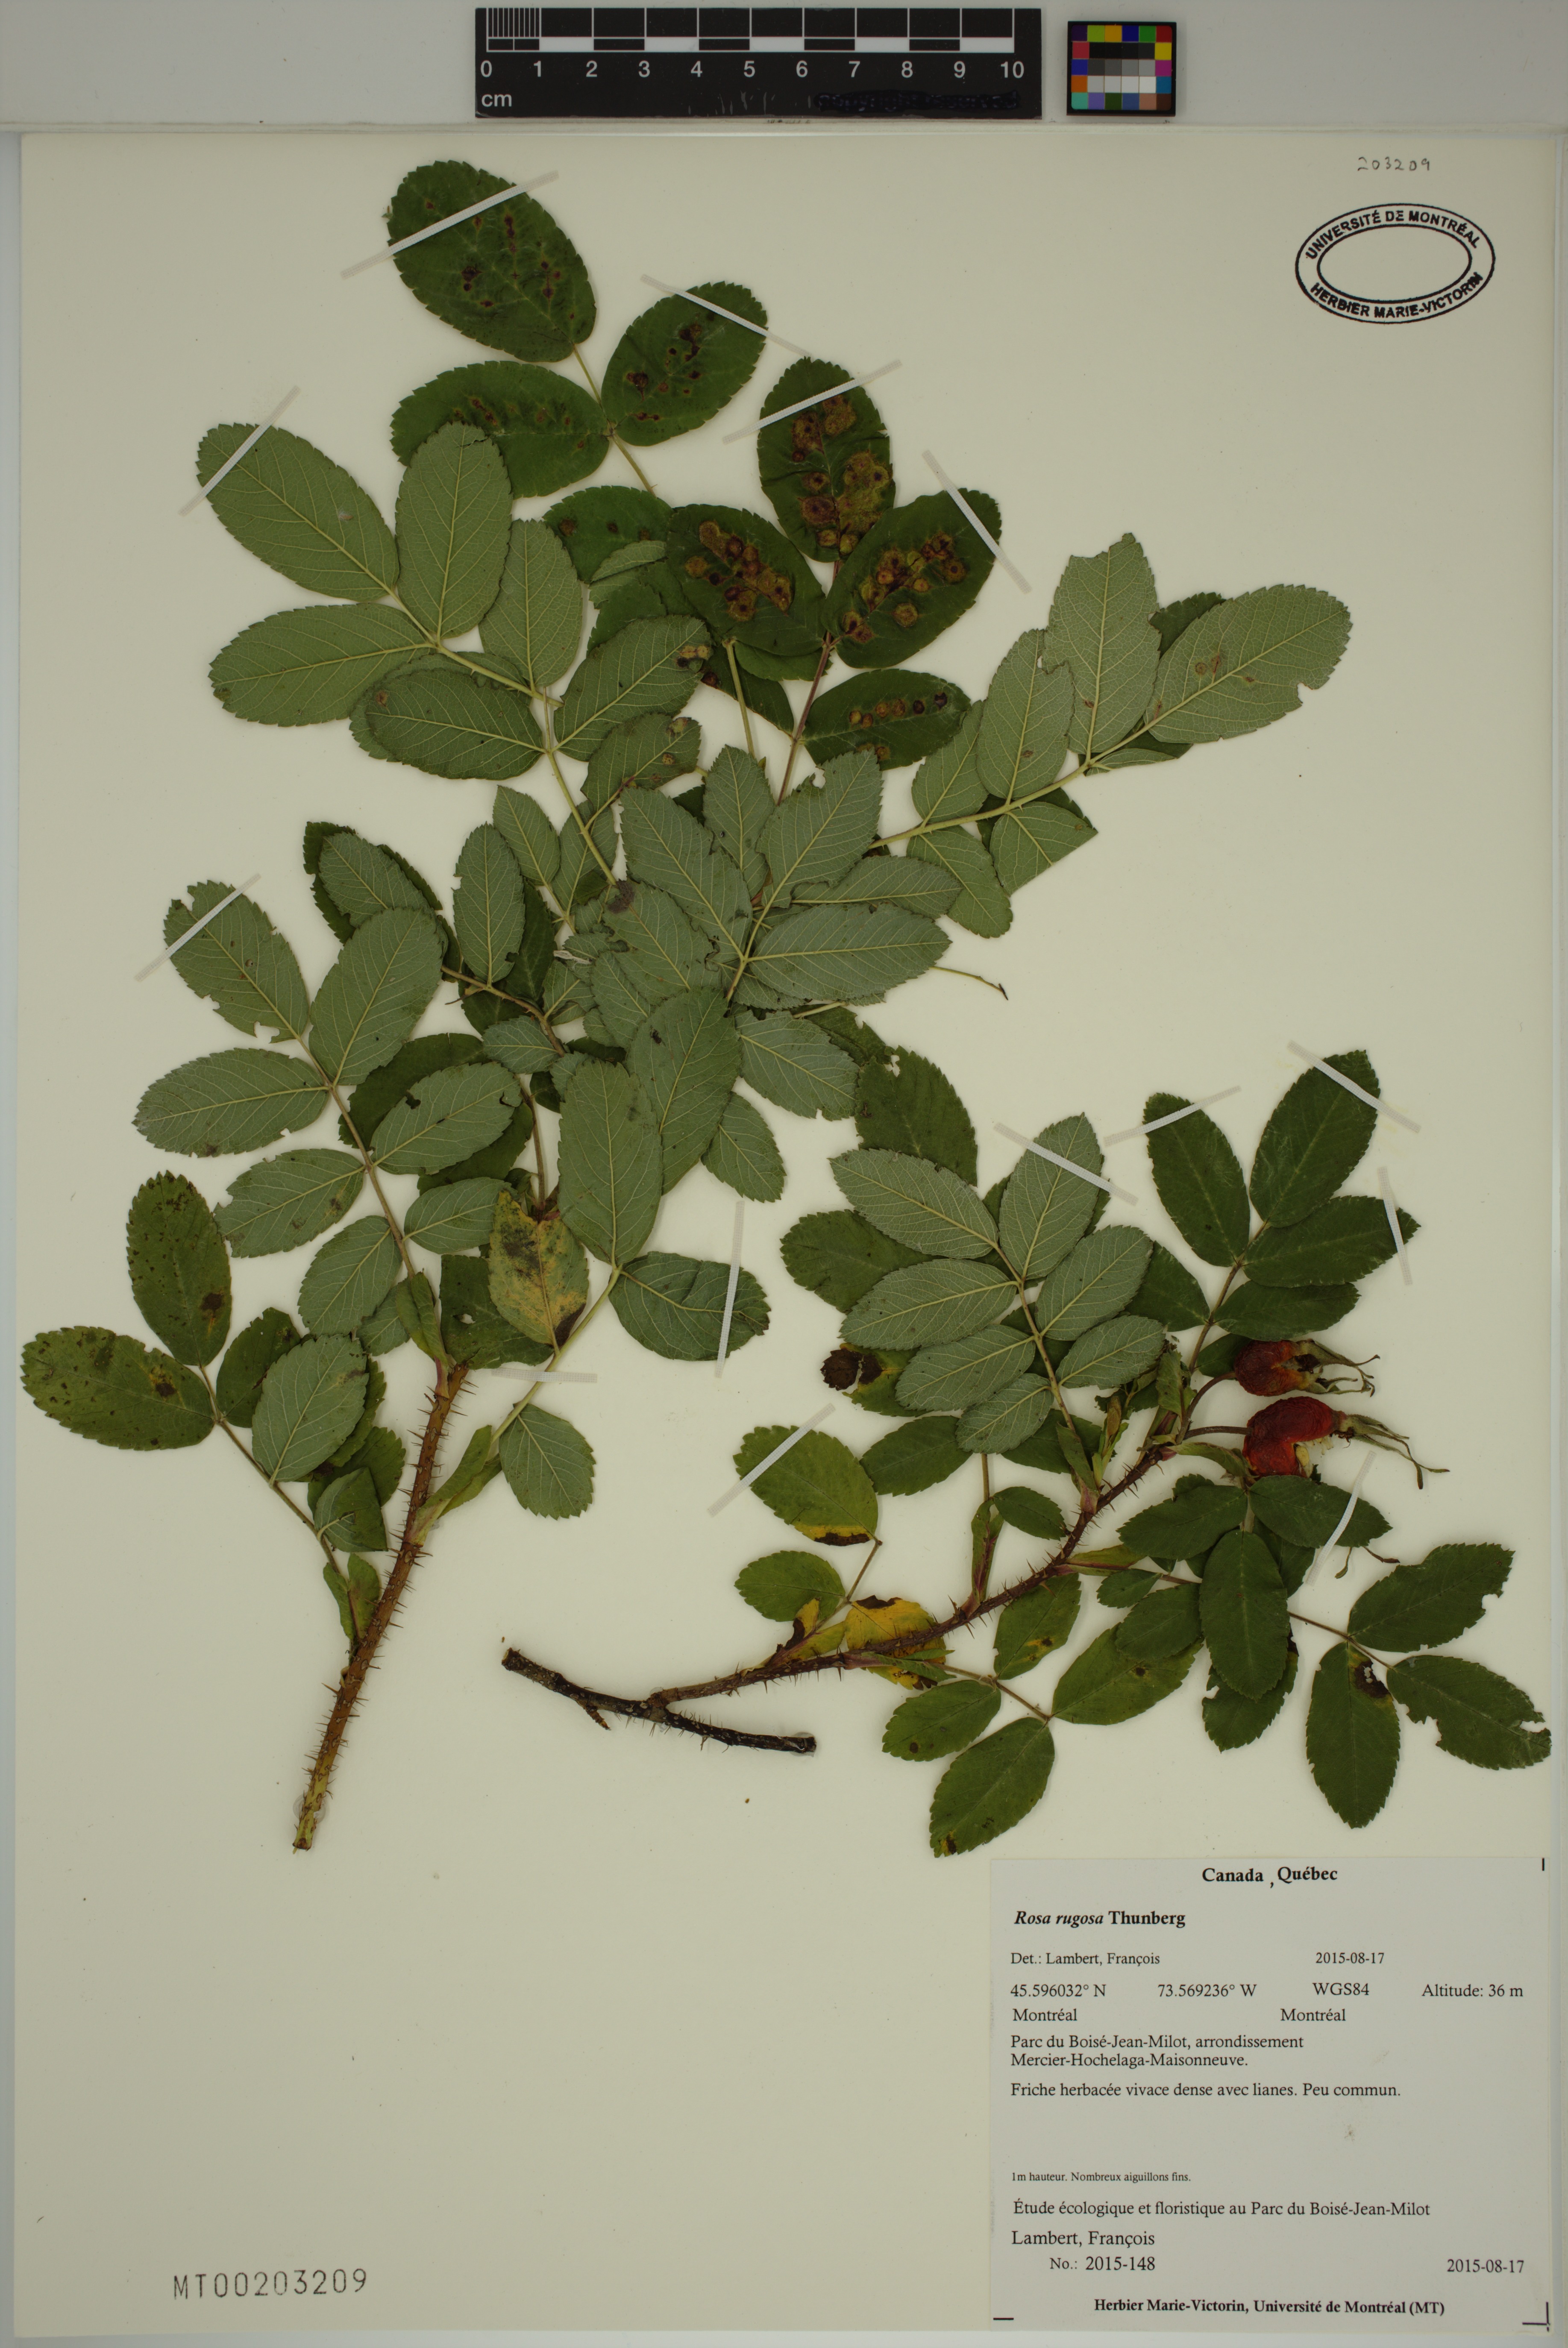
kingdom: Plantae
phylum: Tracheophyta
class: Magnoliopsida
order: Rosales
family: Rosaceae
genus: Rosa
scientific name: Rosa rugosa
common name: Japanese rose
